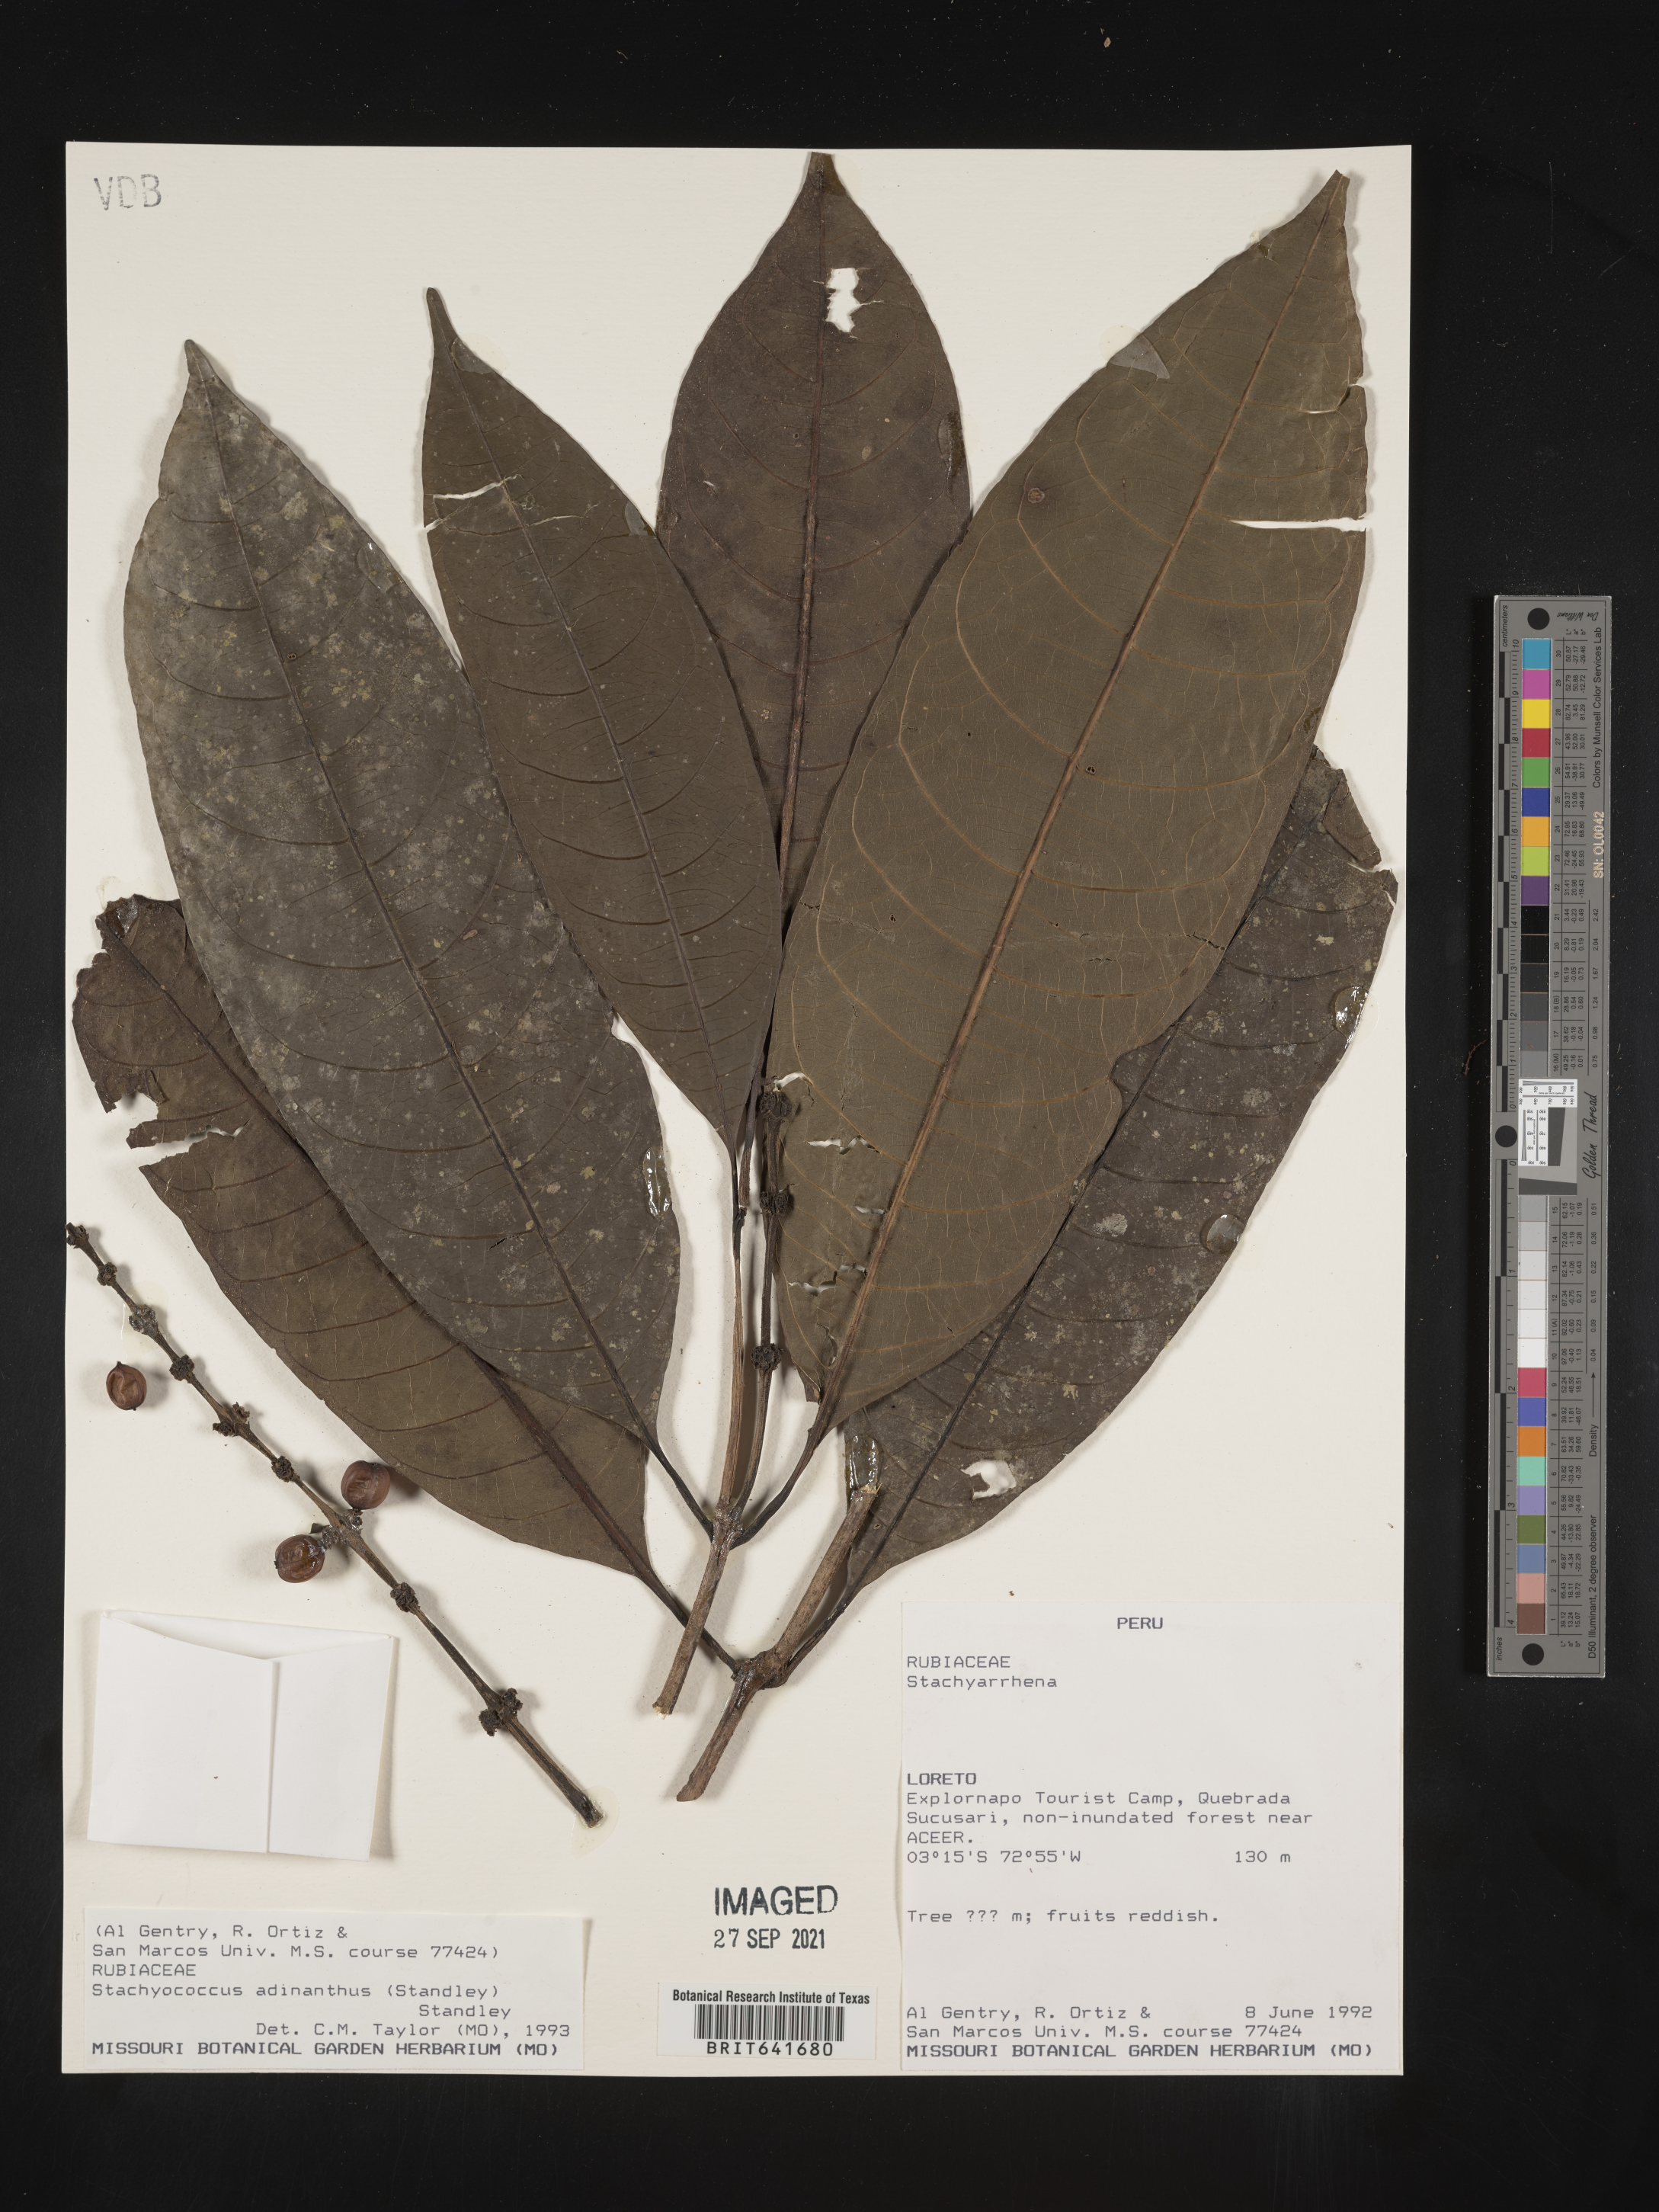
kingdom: Plantae
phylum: Tracheophyta
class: Magnoliopsida
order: Gentianales
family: Rubiaceae
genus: Carapichea
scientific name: Carapichea
